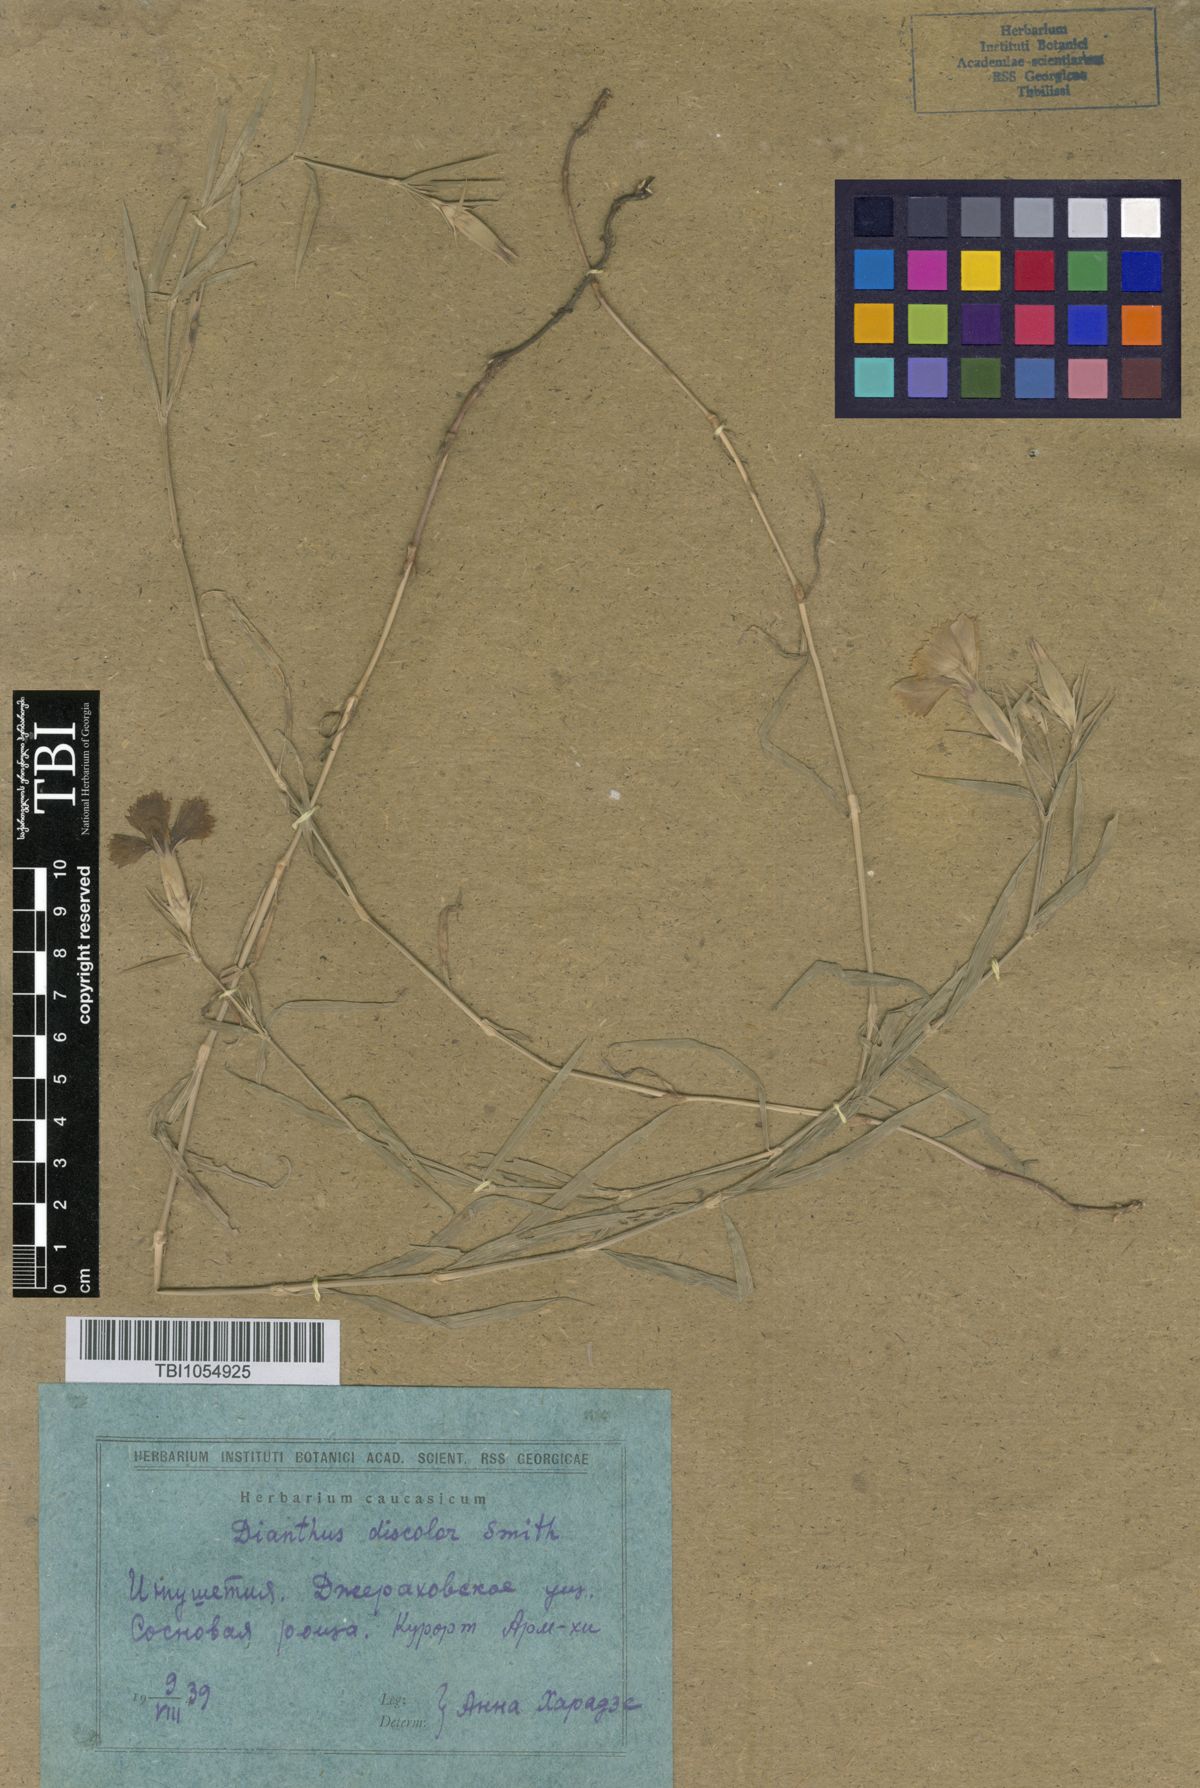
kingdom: Plantae
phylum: Tracheophyta
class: Magnoliopsida
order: Caryophyllales
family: Caryophyllaceae
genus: Dianthus
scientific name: Dianthus caucaseus
